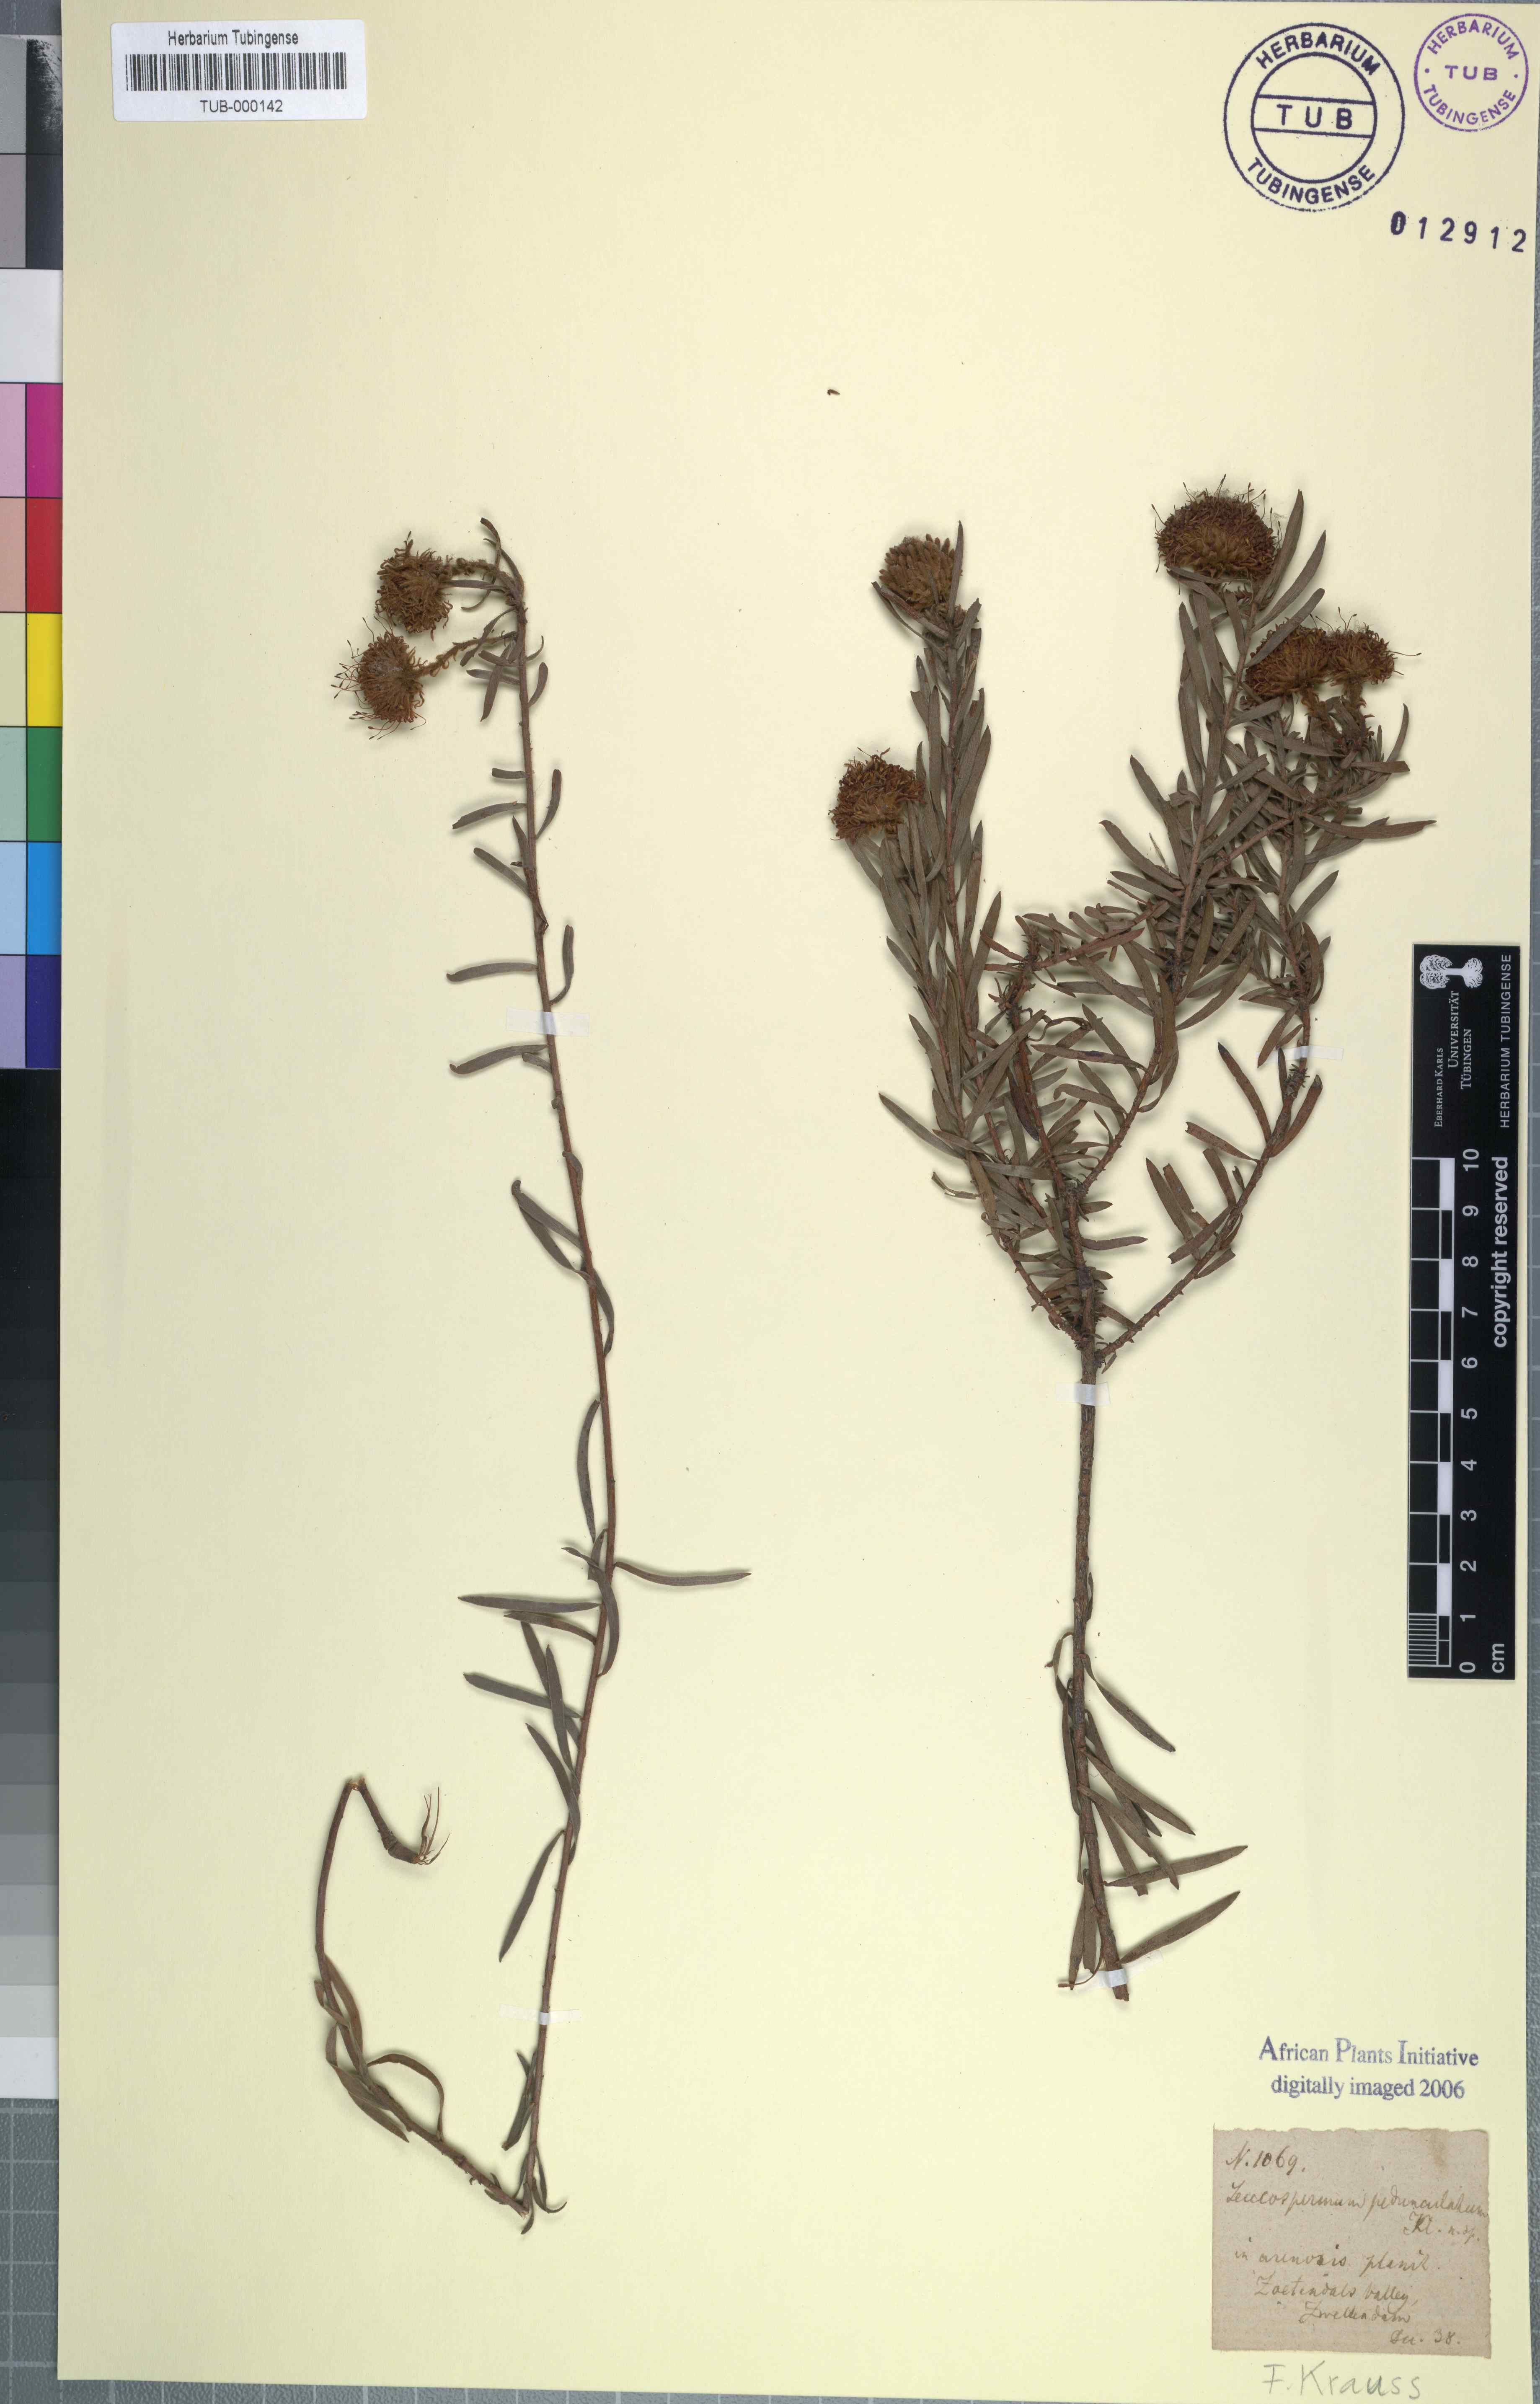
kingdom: Plantae
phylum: Tracheophyta
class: Magnoliopsida
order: Proteales
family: Proteaceae
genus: Leucospermum
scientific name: Leucospermum pedunculatum
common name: White-trailing pincushion
